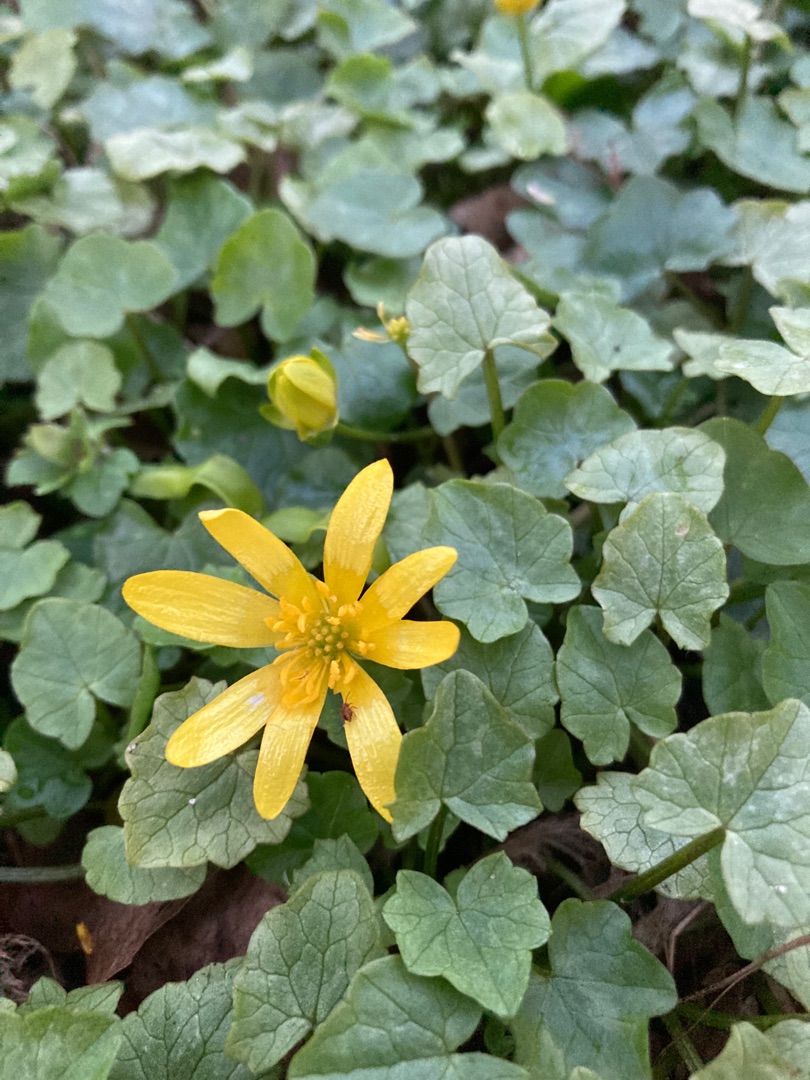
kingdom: Plantae
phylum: Tracheophyta
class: Magnoliopsida
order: Ranunculales
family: Ranunculaceae
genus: Ficaria
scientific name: Ficaria verna
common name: Vorterod
